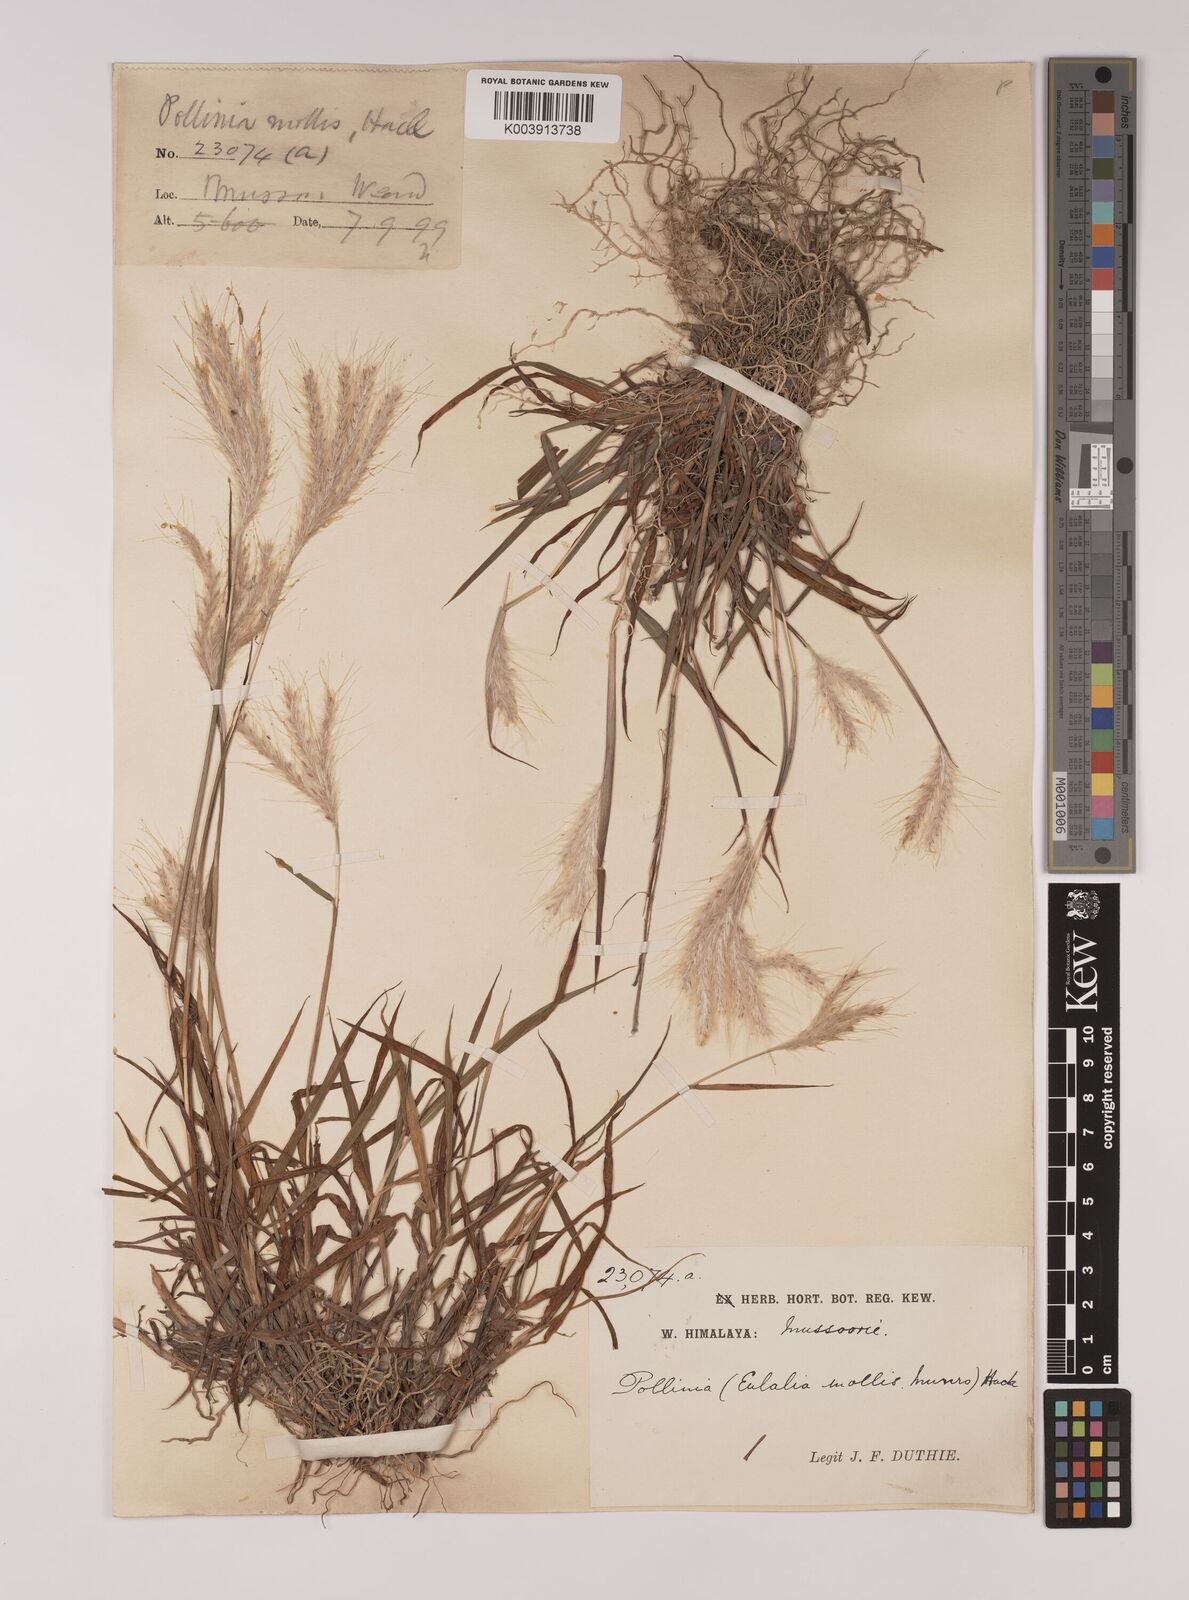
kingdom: Plantae
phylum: Tracheophyta
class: Liliopsida
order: Poales
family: Poaceae
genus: Eulalia
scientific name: Eulalia mollis
